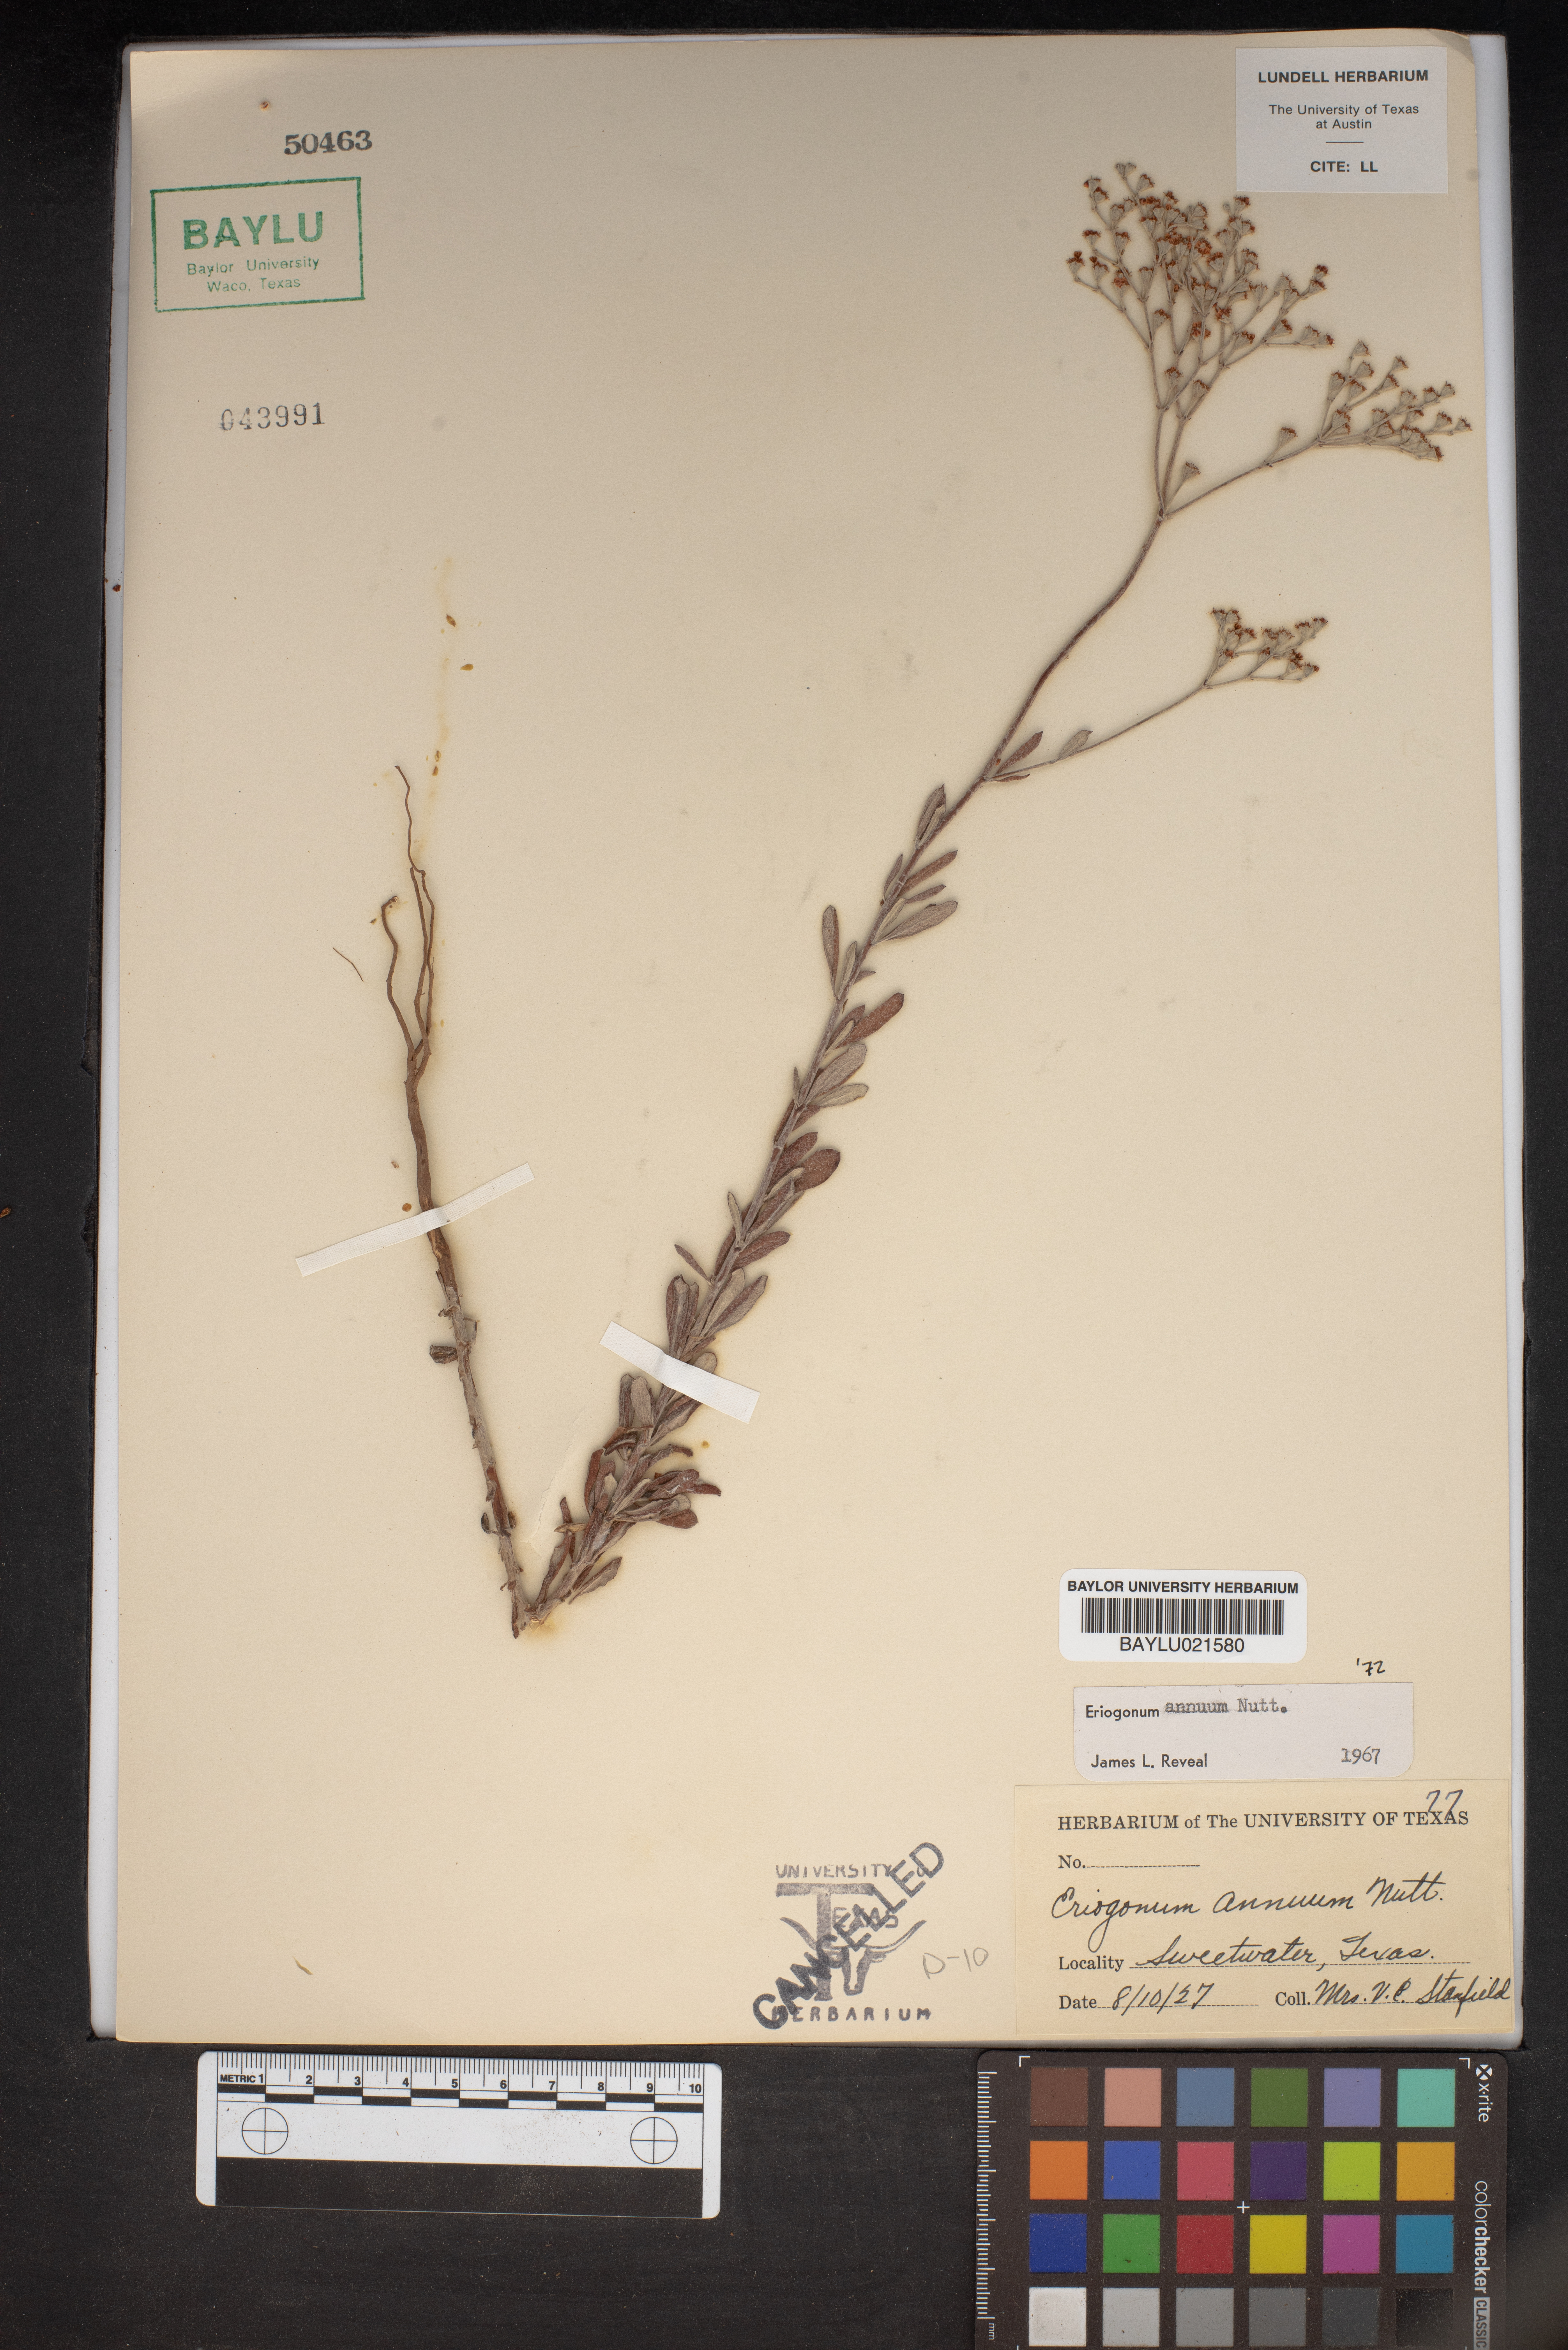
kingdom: Plantae
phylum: Tracheophyta
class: Magnoliopsida
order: Caryophyllales
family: Polygonaceae
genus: Eriogonum
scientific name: Eriogonum annuum
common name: Annual wild buckwheat
